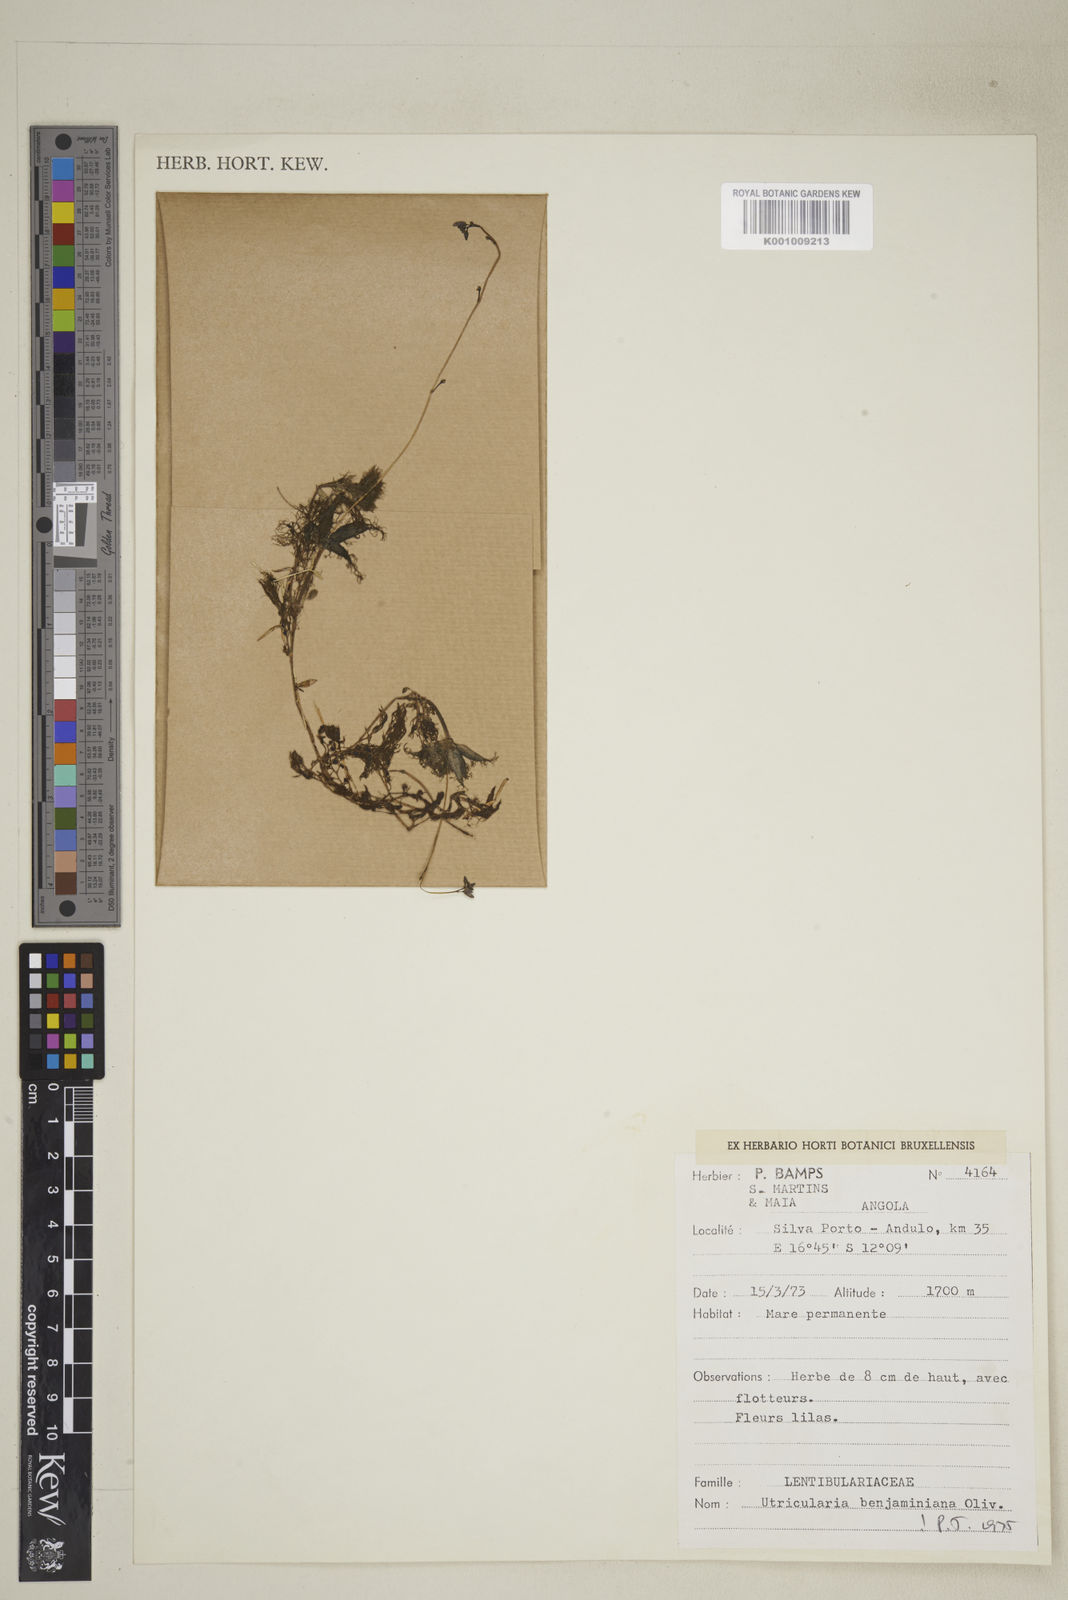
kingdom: Plantae
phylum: Tracheophyta
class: Magnoliopsida
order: Lamiales
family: Lentibulariaceae
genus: Utricularia
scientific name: Utricularia
